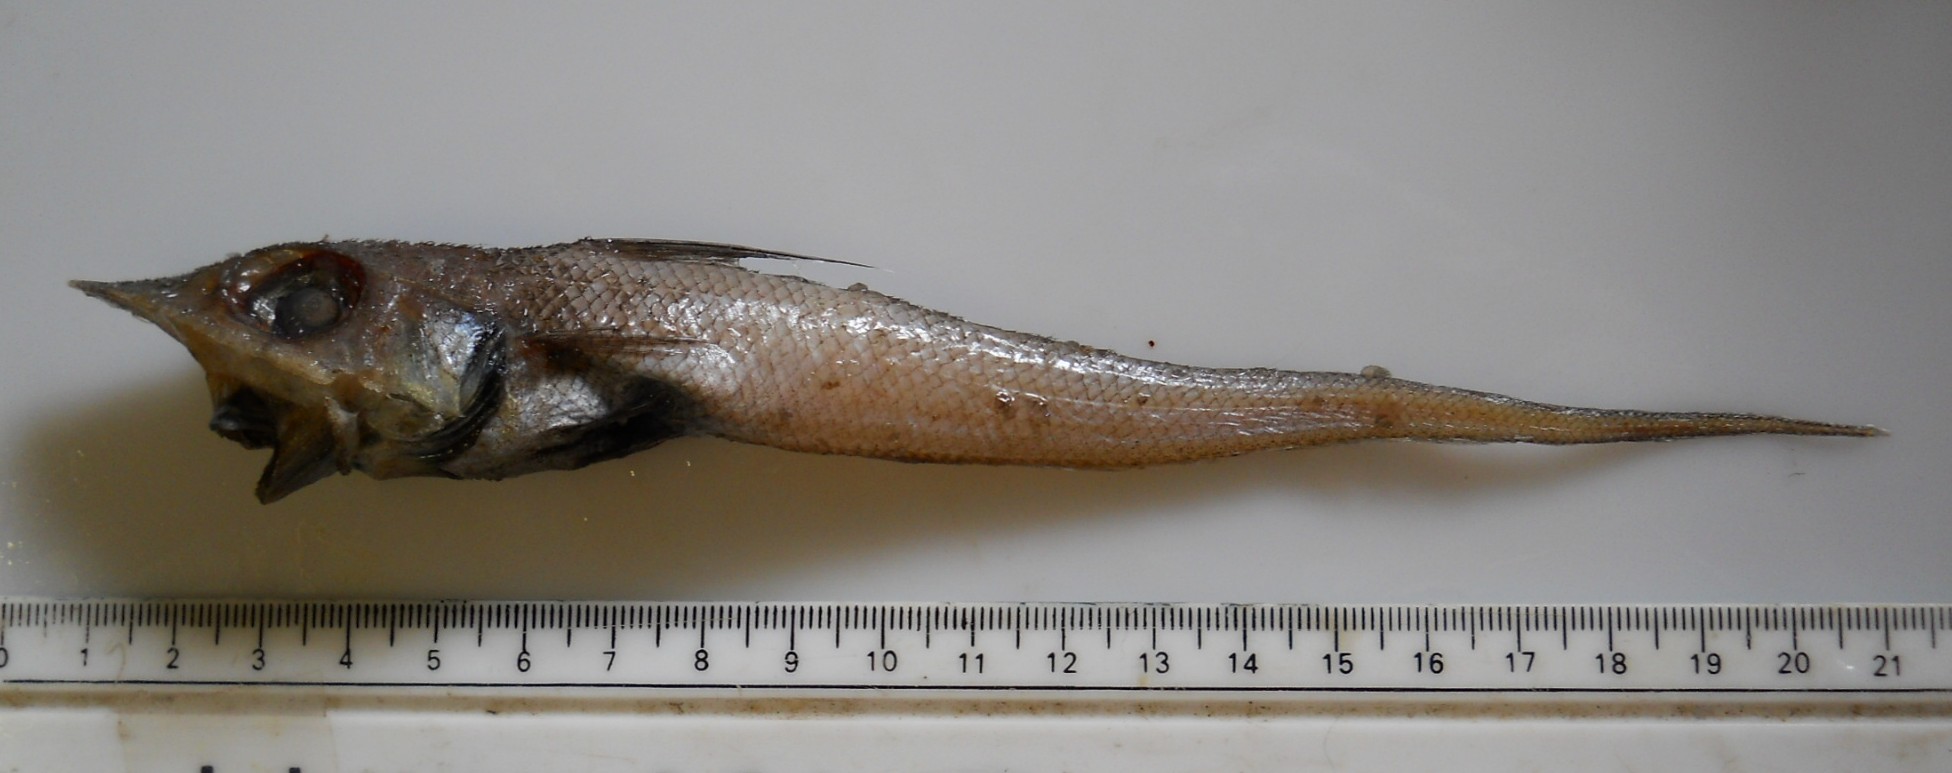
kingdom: Animalia
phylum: Chordata
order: Gadiformes
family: Macrouridae
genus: Coelorinchus
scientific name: Coelorinchus trunovi
